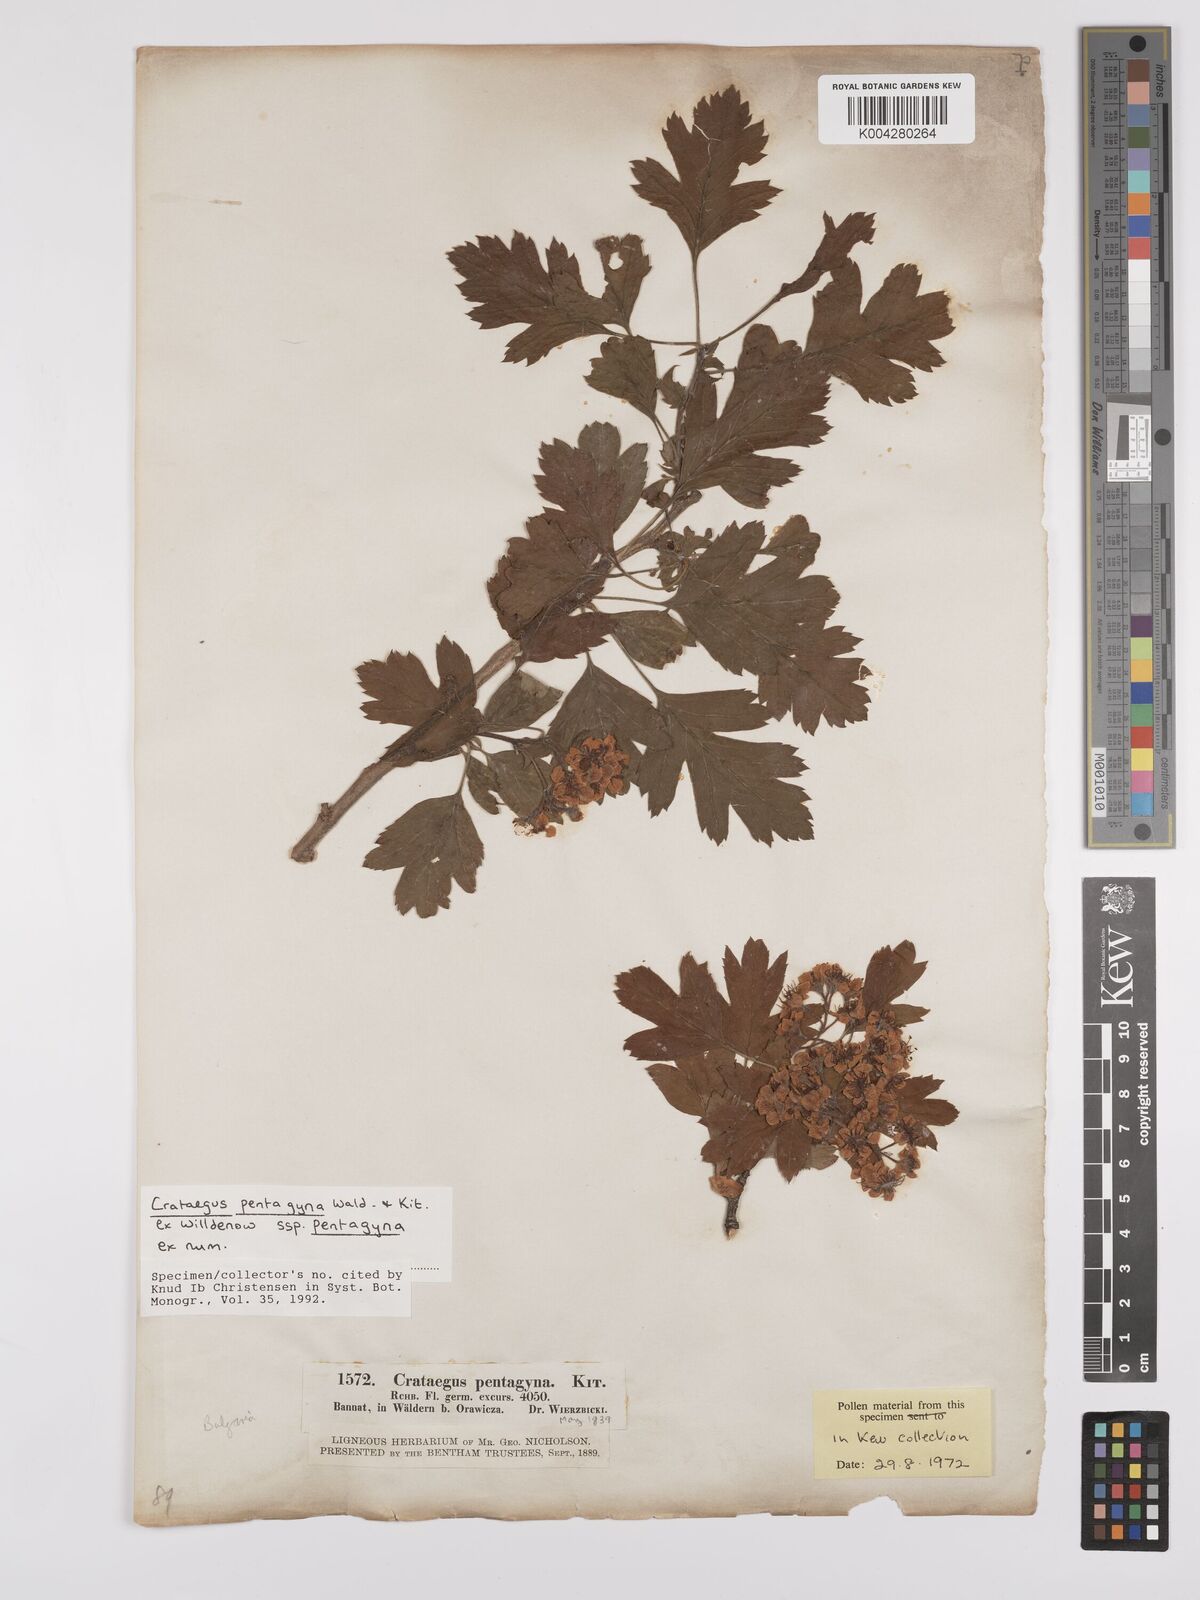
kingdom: Plantae
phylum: Tracheophyta
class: Magnoliopsida
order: Rosales
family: Rosaceae
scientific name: Rosaceae
